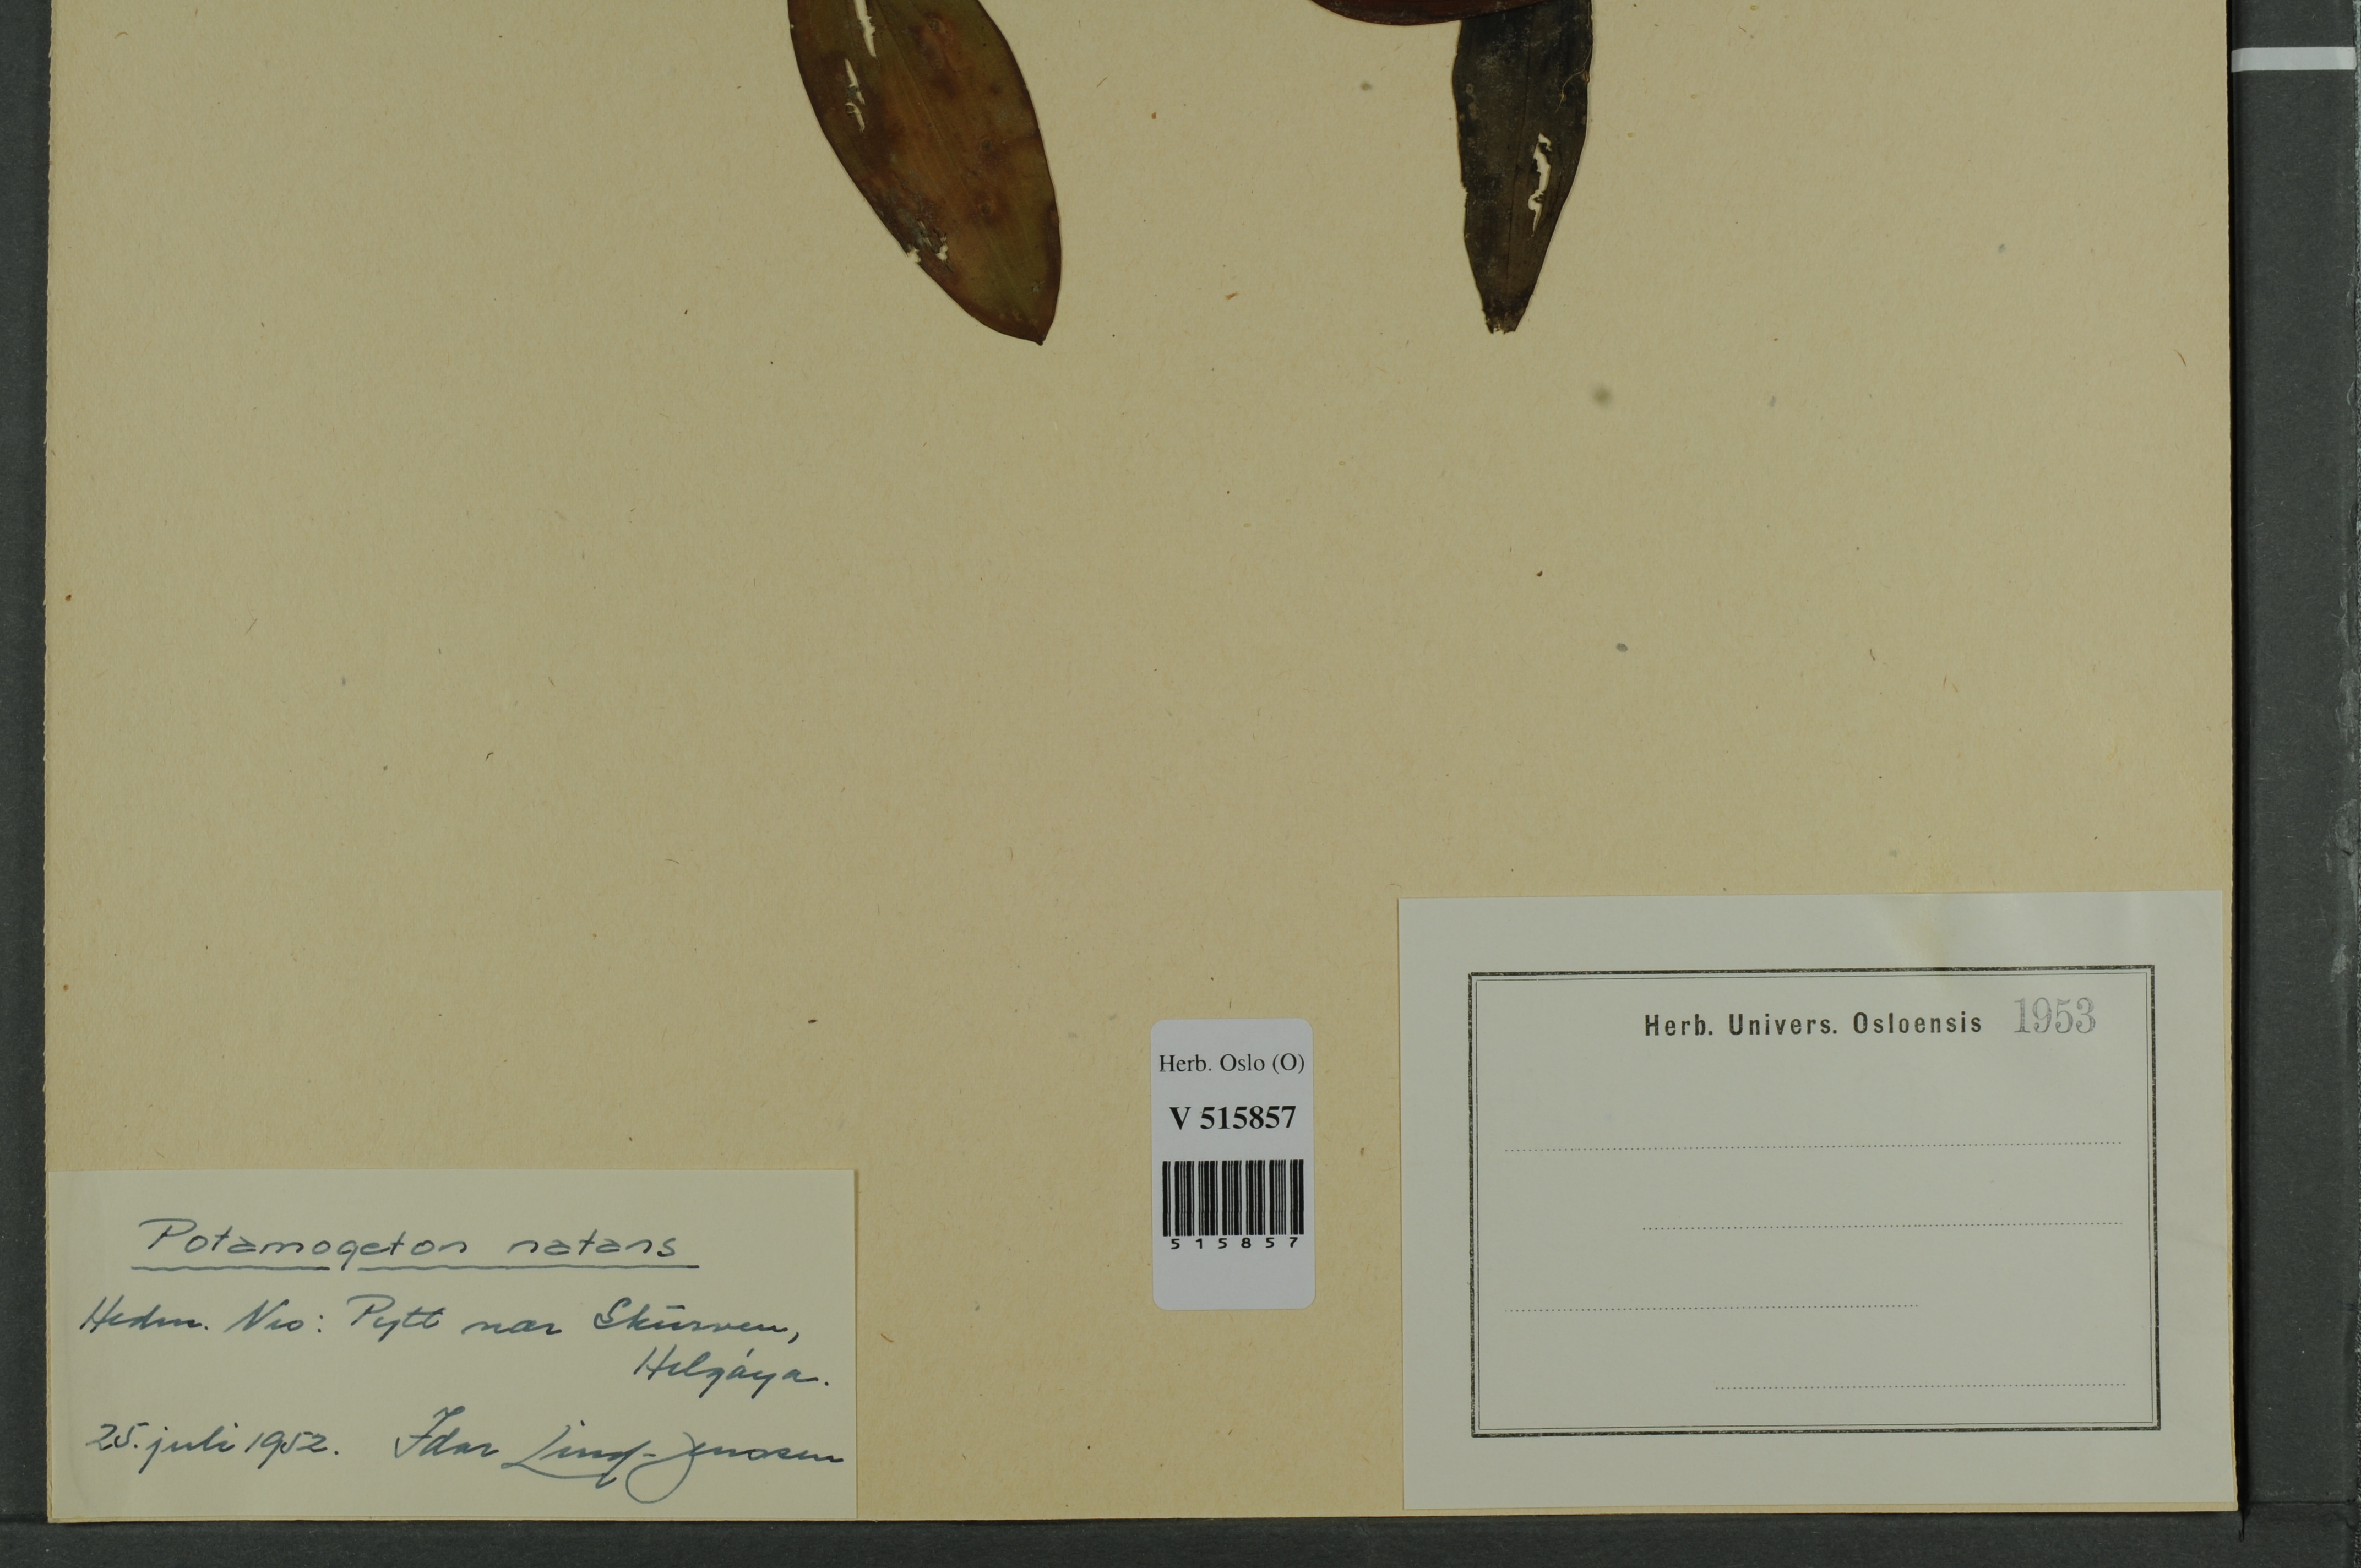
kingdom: Plantae
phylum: Tracheophyta
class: Liliopsida
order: Alismatales
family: Potamogetonaceae
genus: Potamogeton
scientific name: Potamogeton natans
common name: Broad-leaved pondweed
